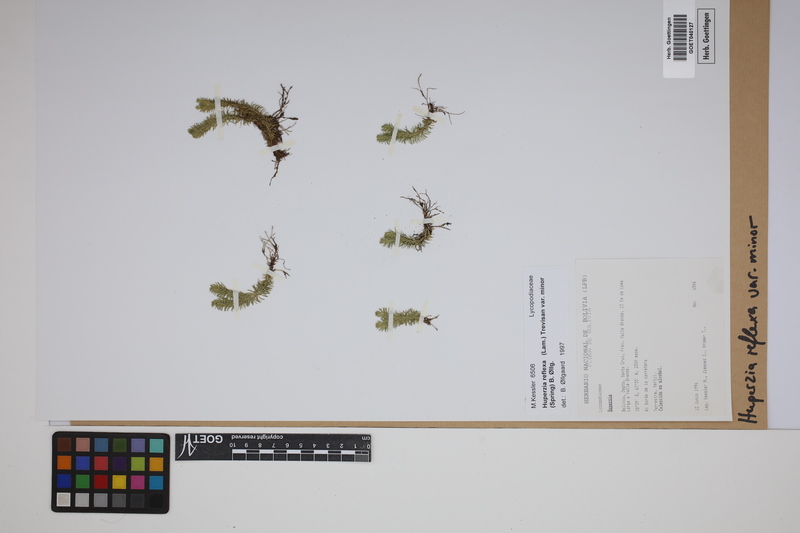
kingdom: Plantae
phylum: Tracheophyta
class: Lycopodiopsida
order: Lycopodiales
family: Lycopodiaceae
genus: Phlegmariurus
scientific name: Phlegmariurus reflexus
